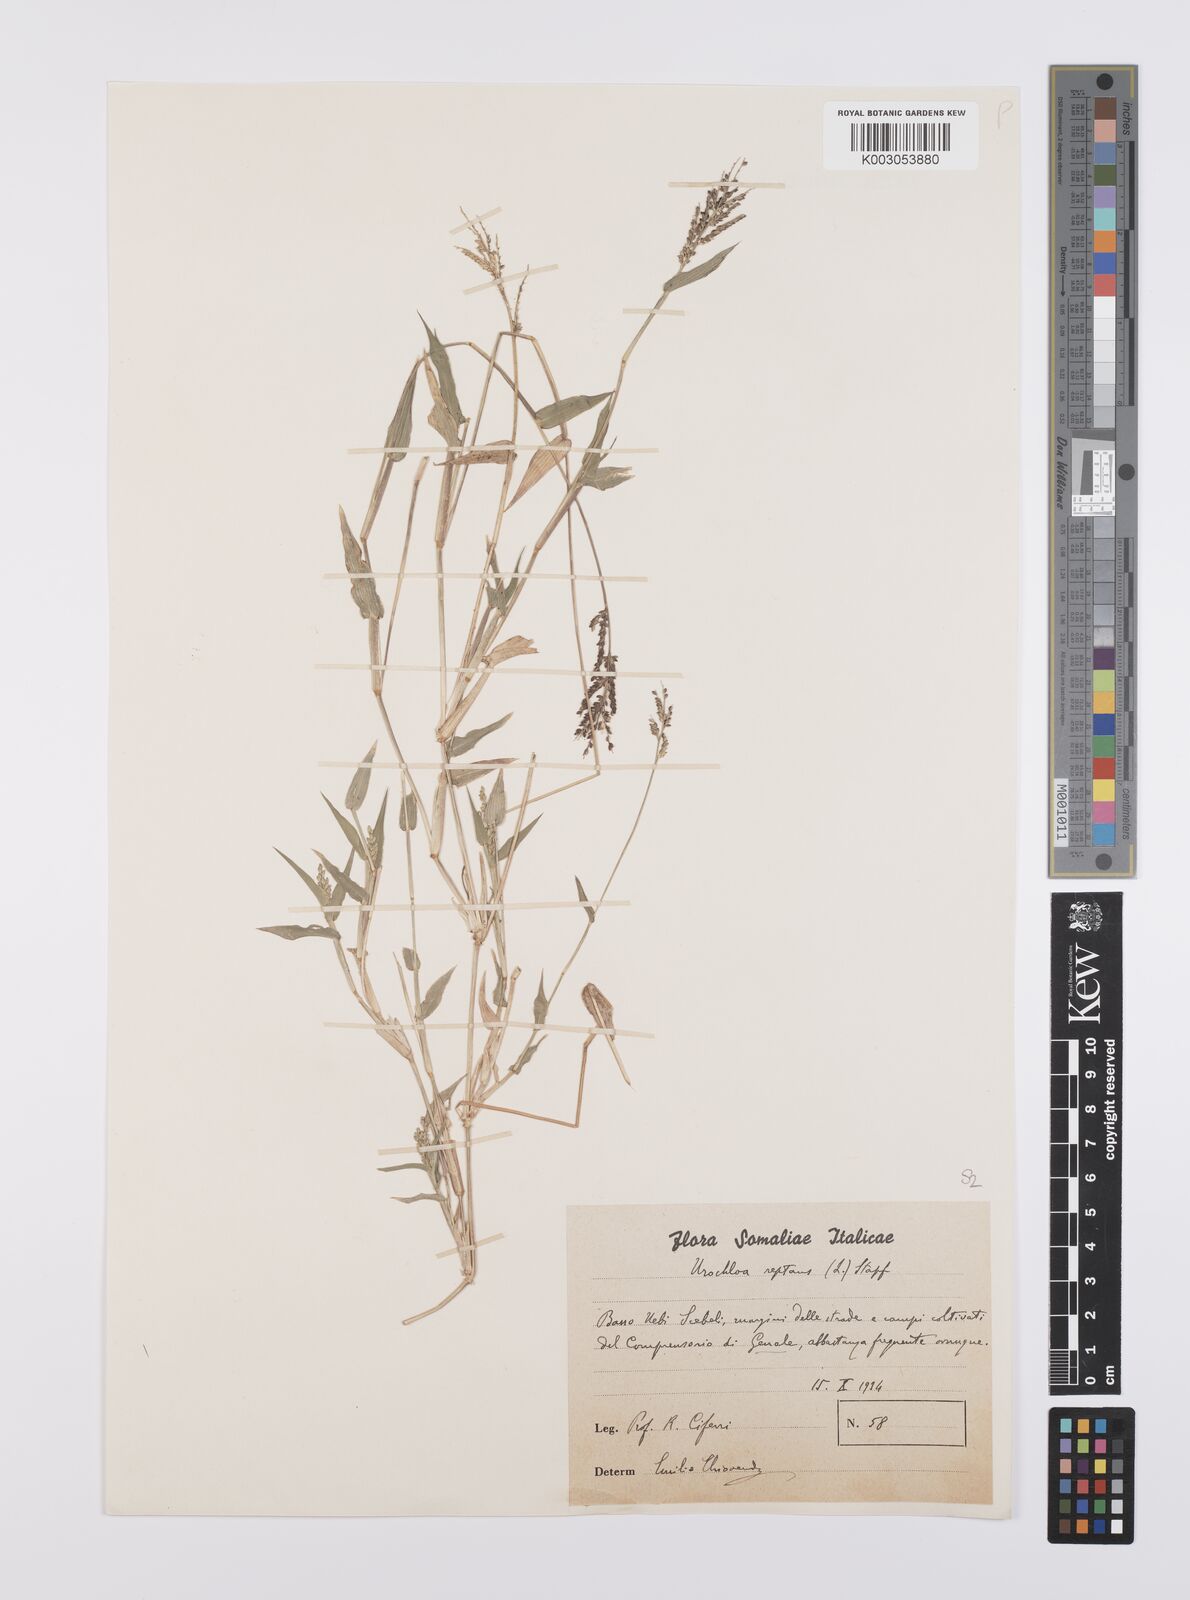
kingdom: Plantae
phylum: Tracheophyta
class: Liliopsida
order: Poales
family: Poaceae
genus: Urochloa
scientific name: Urochloa reptans
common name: Sprawling signalgrass
